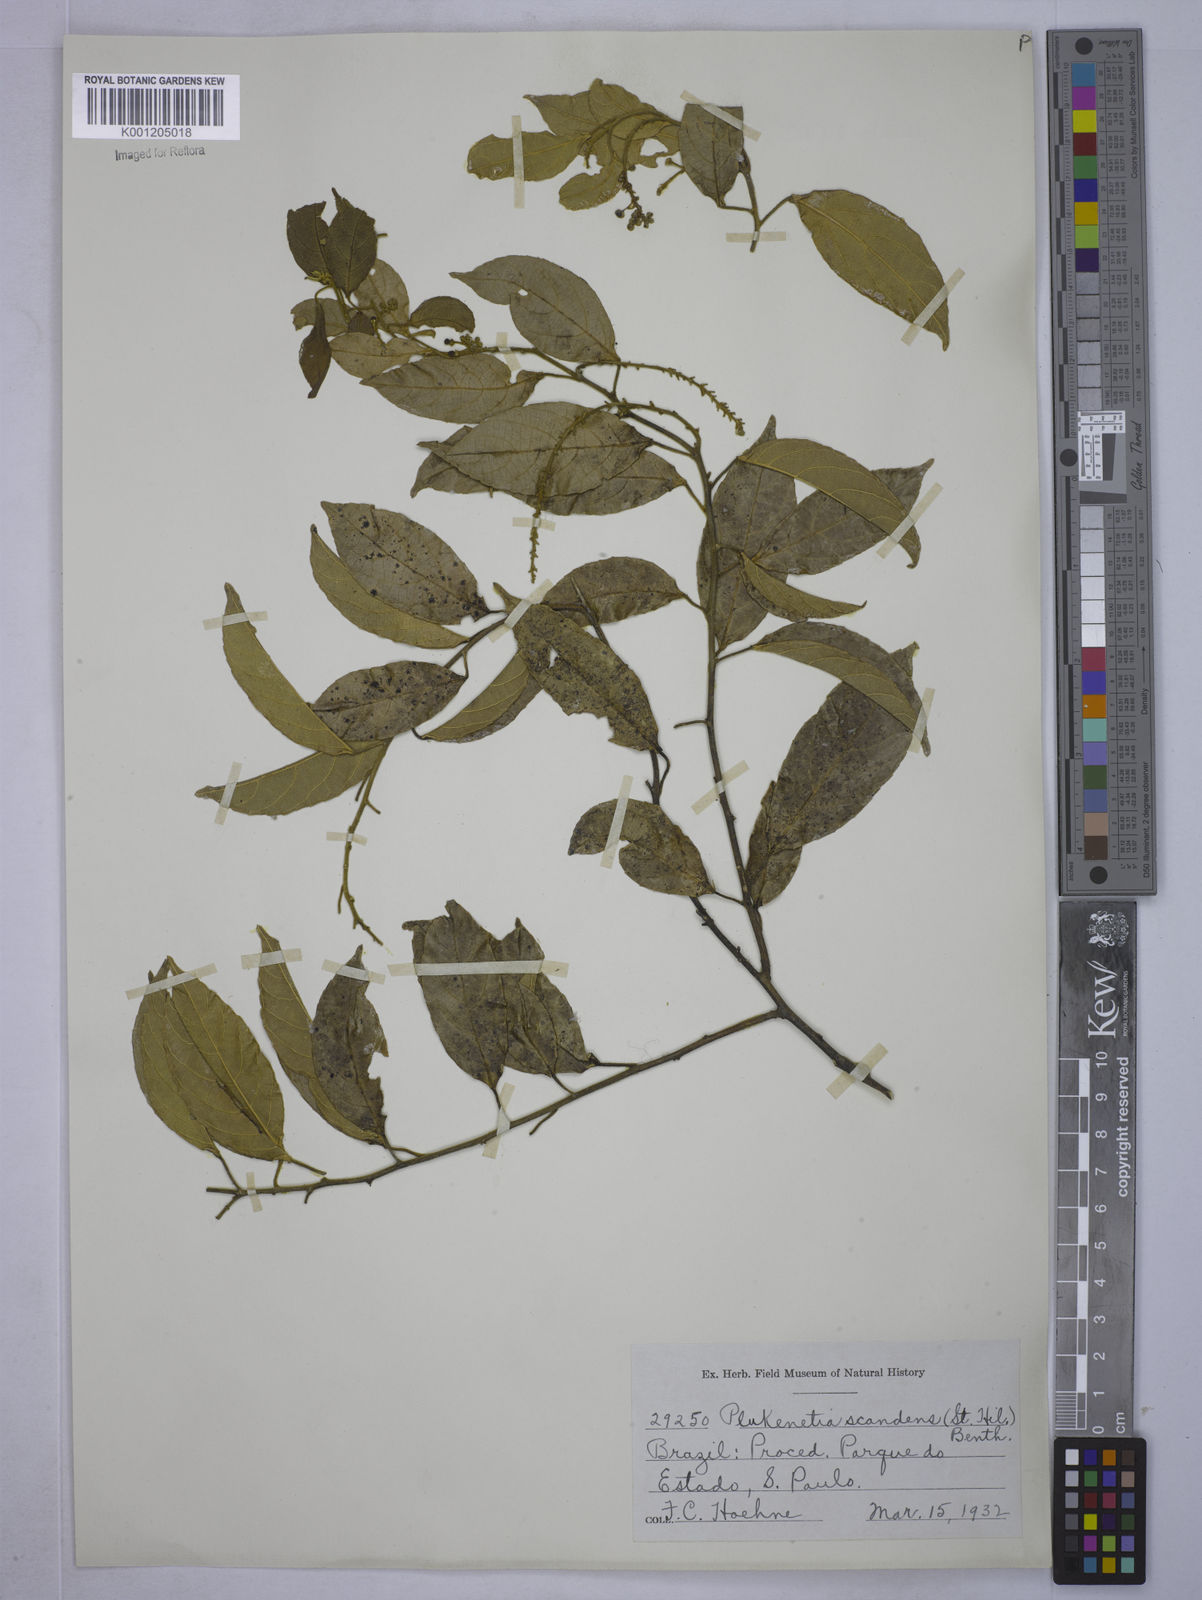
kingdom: Plantae
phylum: Tracheophyta
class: Magnoliopsida
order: Malpighiales
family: Euphorbiaceae
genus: Plukenetia
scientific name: Plukenetia serrata
